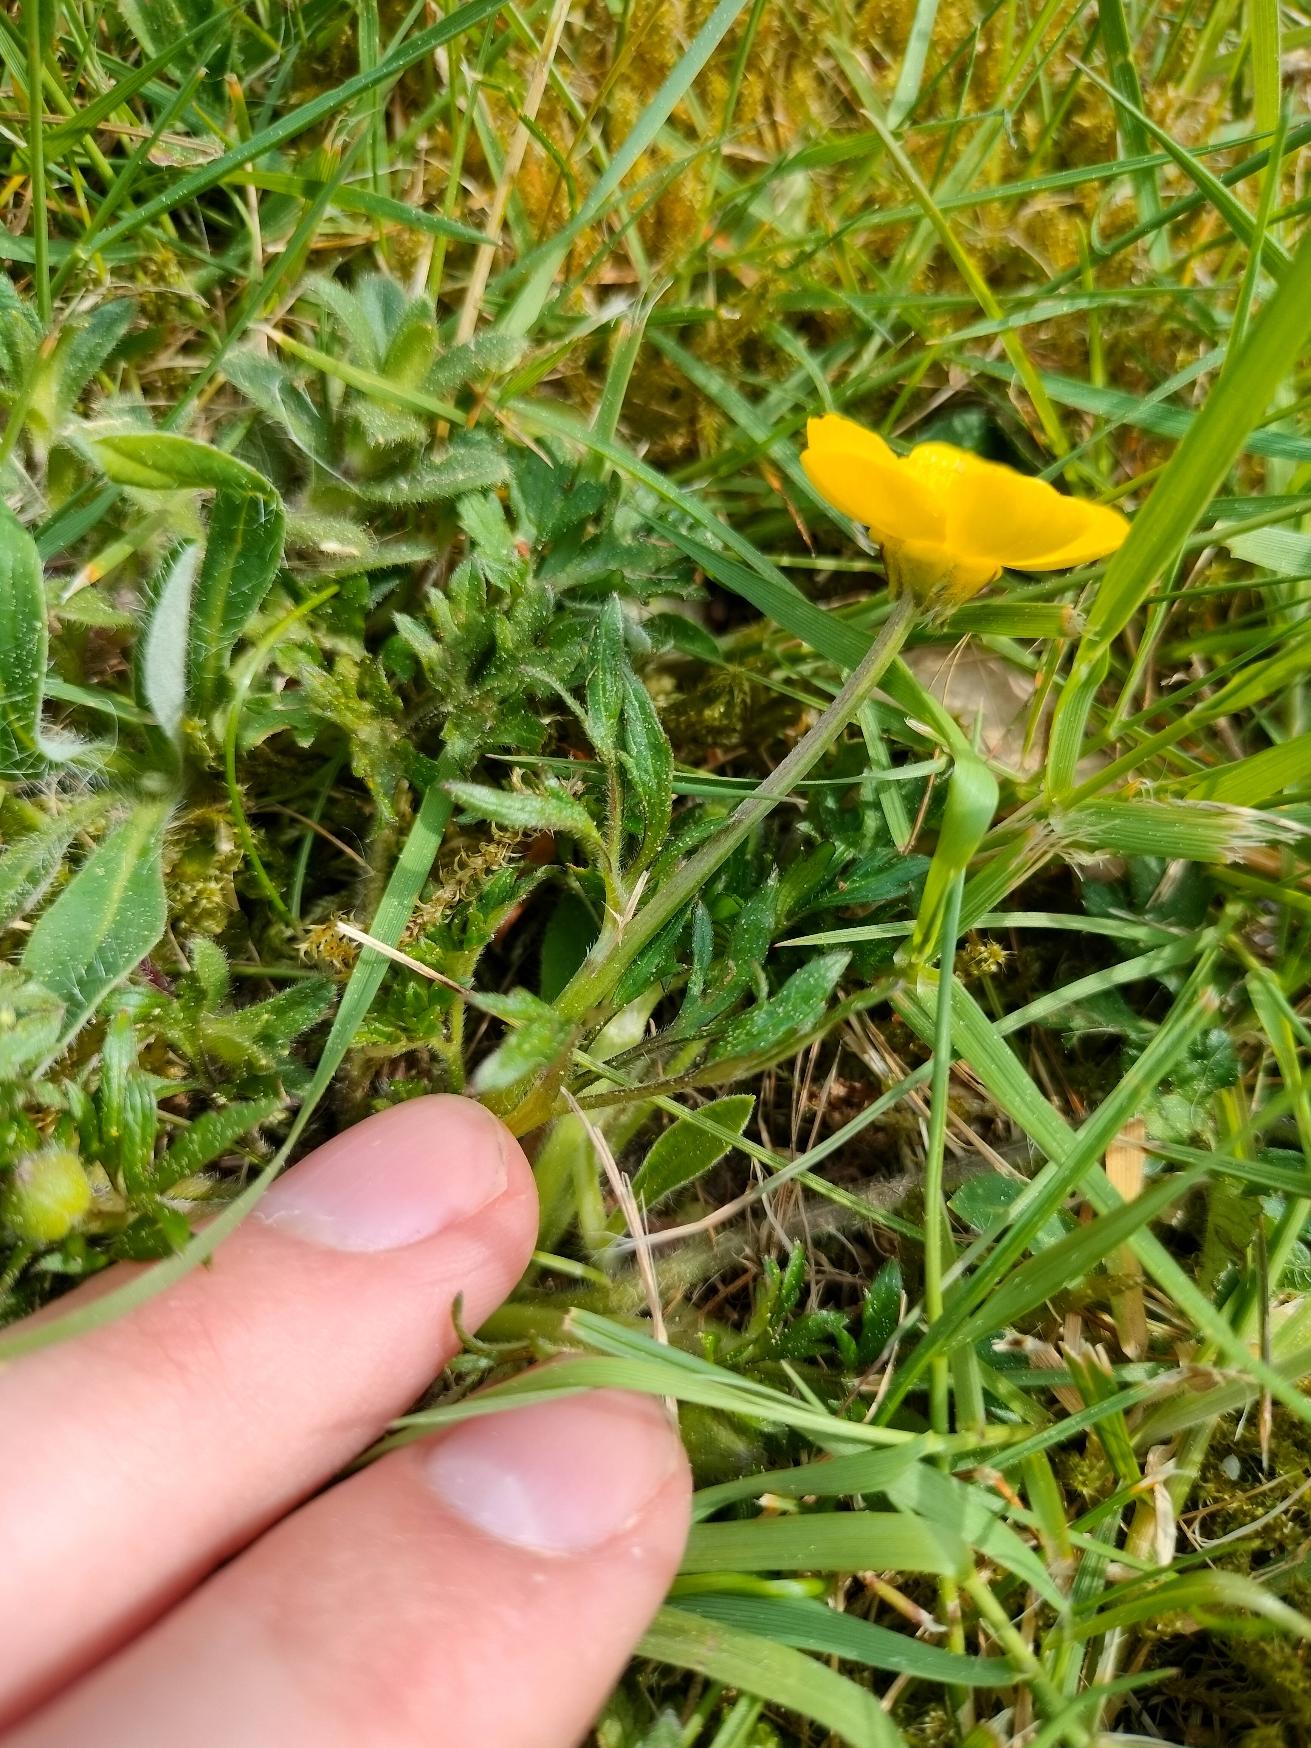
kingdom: Plantae
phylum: Tracheophyta
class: Magnoliopsida
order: Ranunculales
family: Ranunculaceae
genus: Ranunculus
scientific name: Ranunculus bulbosus
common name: Knold-ranunkel
